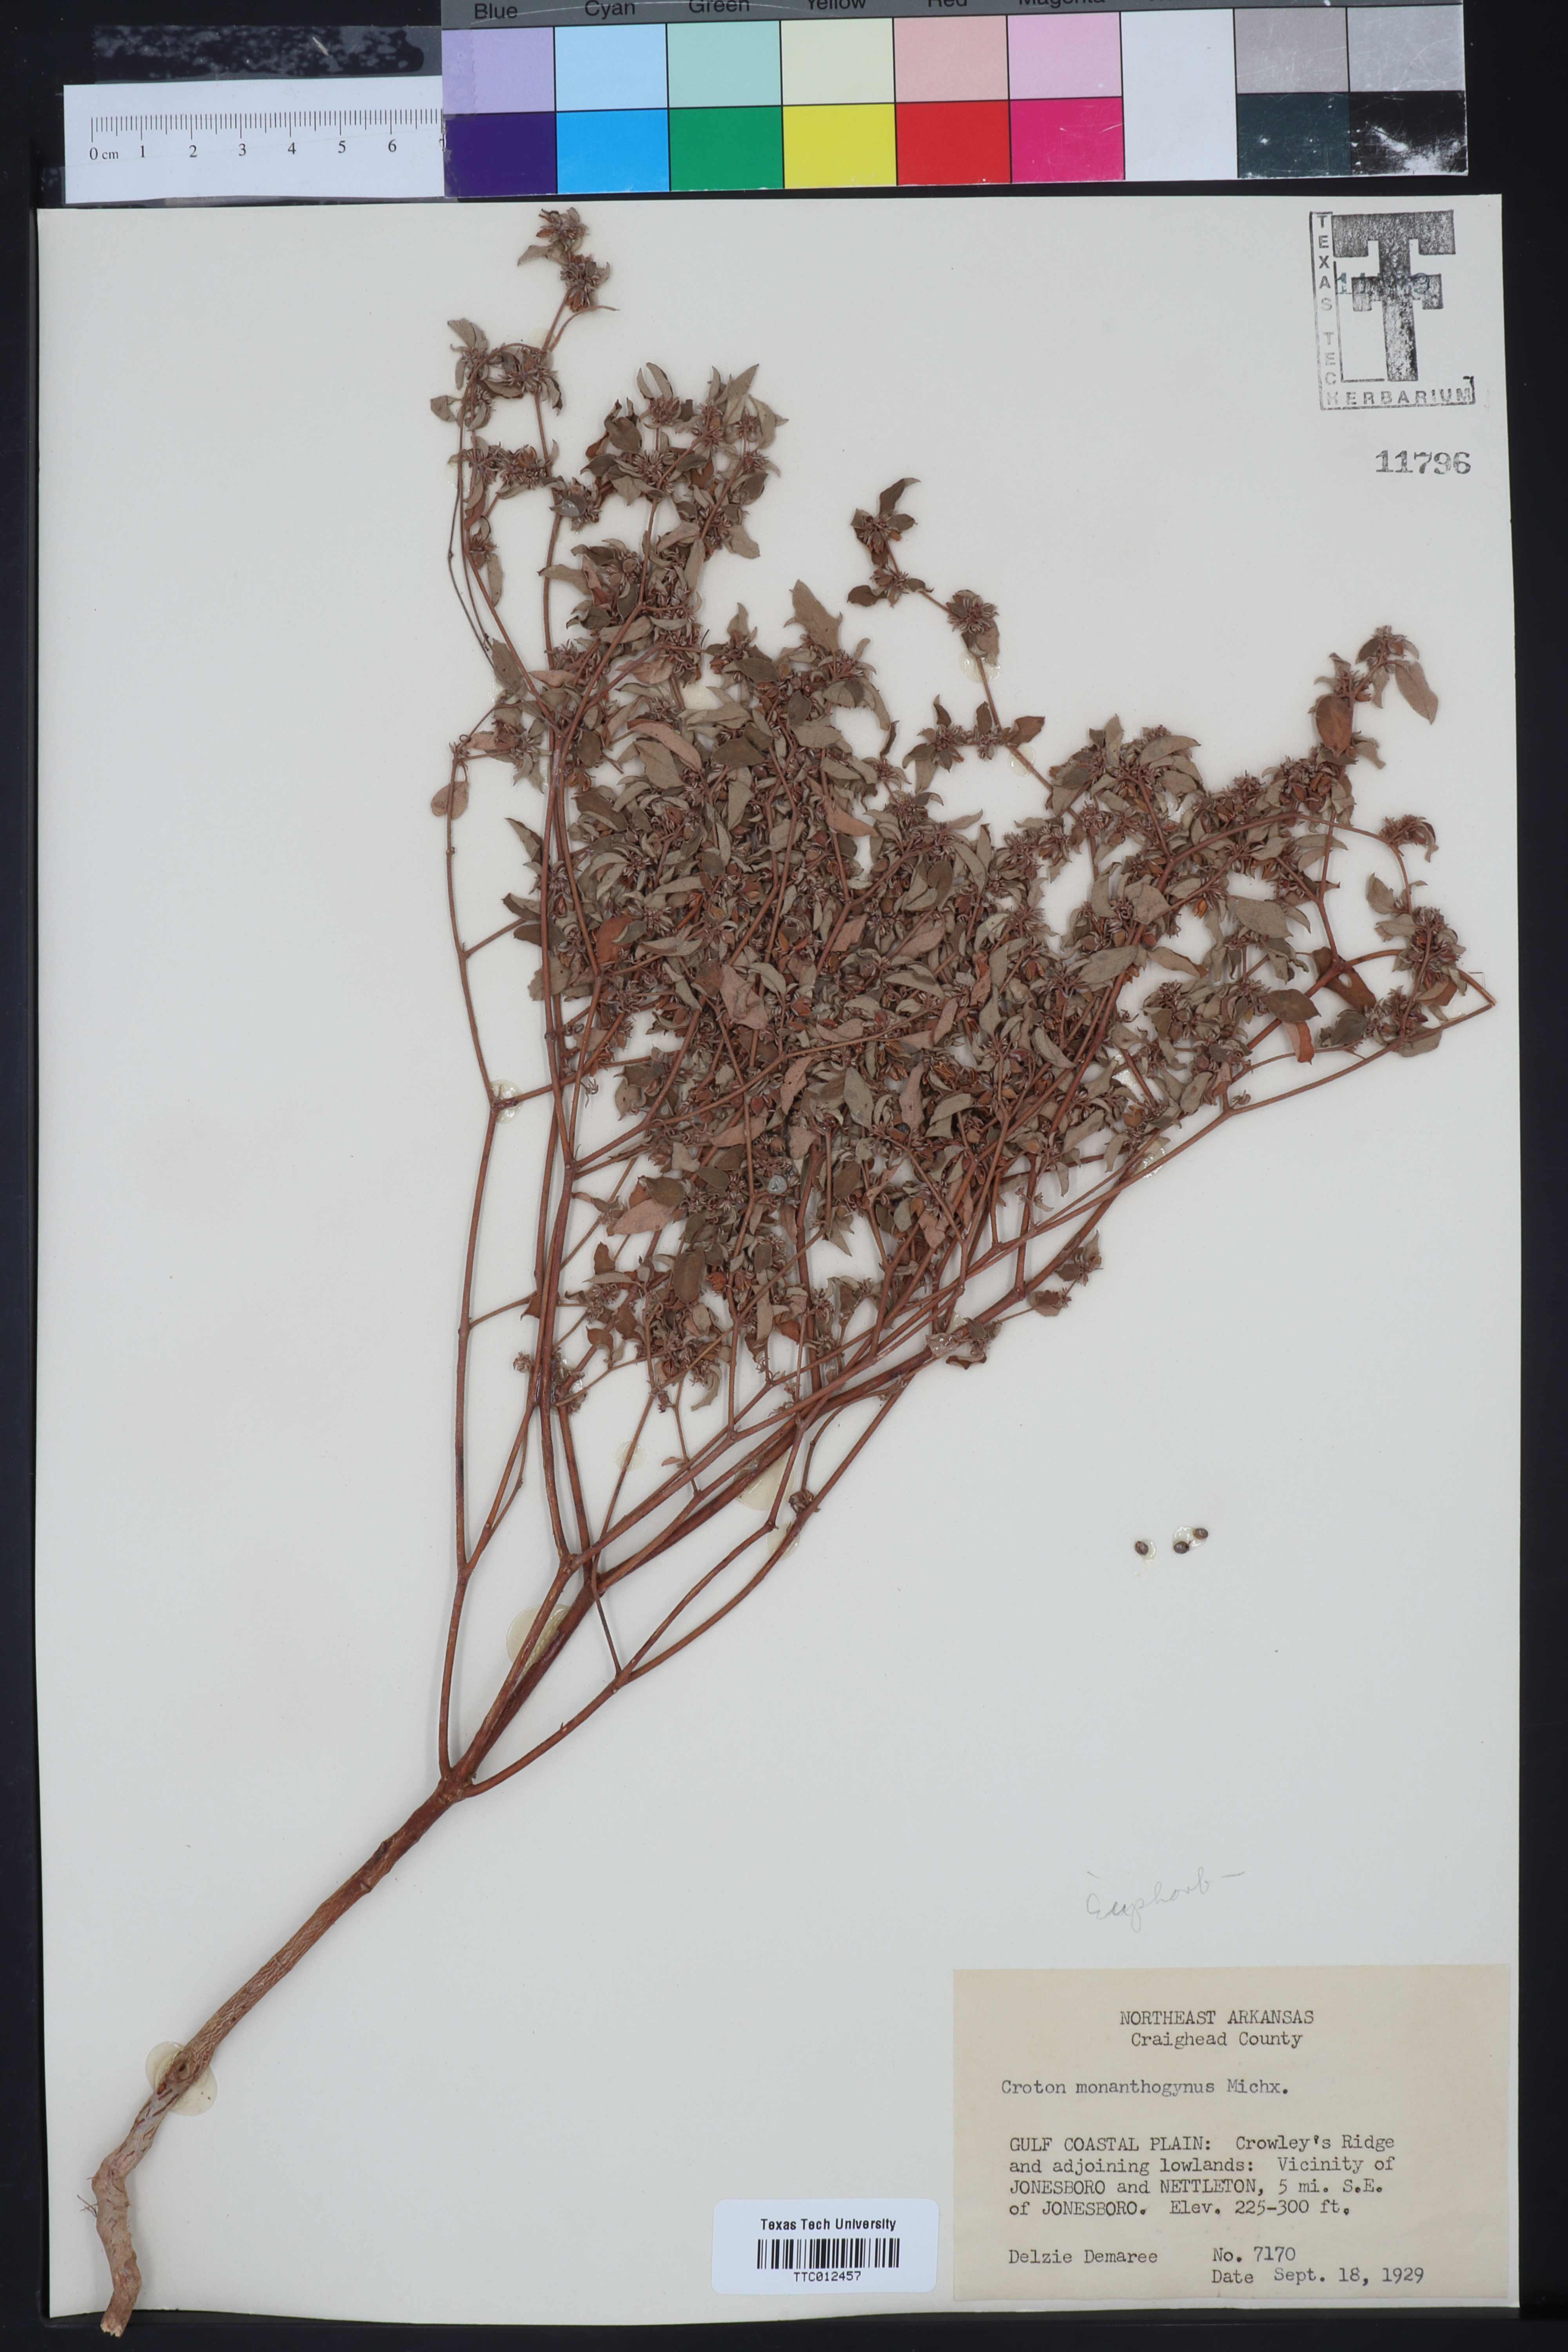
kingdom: Plantae
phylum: Tracheophyta
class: Magnoliopsida
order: Malpighiales
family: Euphorbiaceae
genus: Croton
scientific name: Croton monanthogynus
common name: One-seed croton
